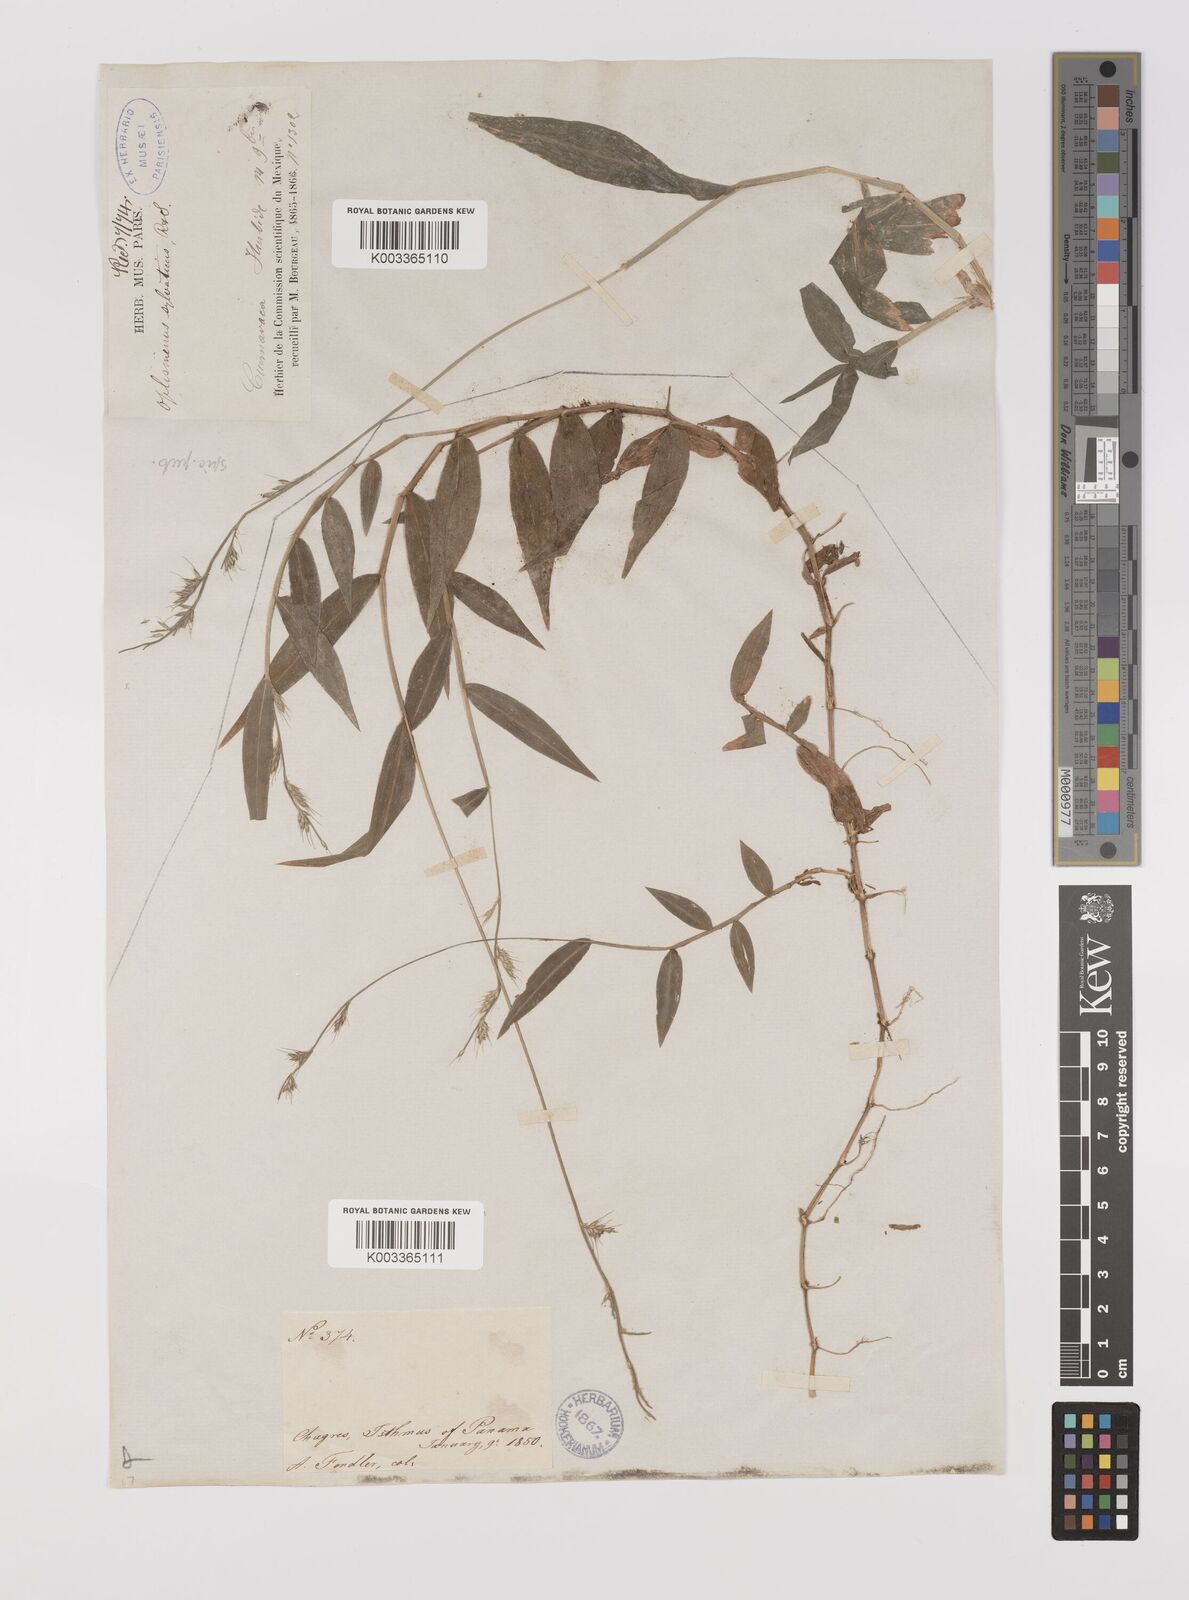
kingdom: Plantae
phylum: Tracheophyta
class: Liliopsida
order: Poales
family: Poaceae
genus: Oplismenus
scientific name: Oplismenus hirtellus
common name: Basketgrass
